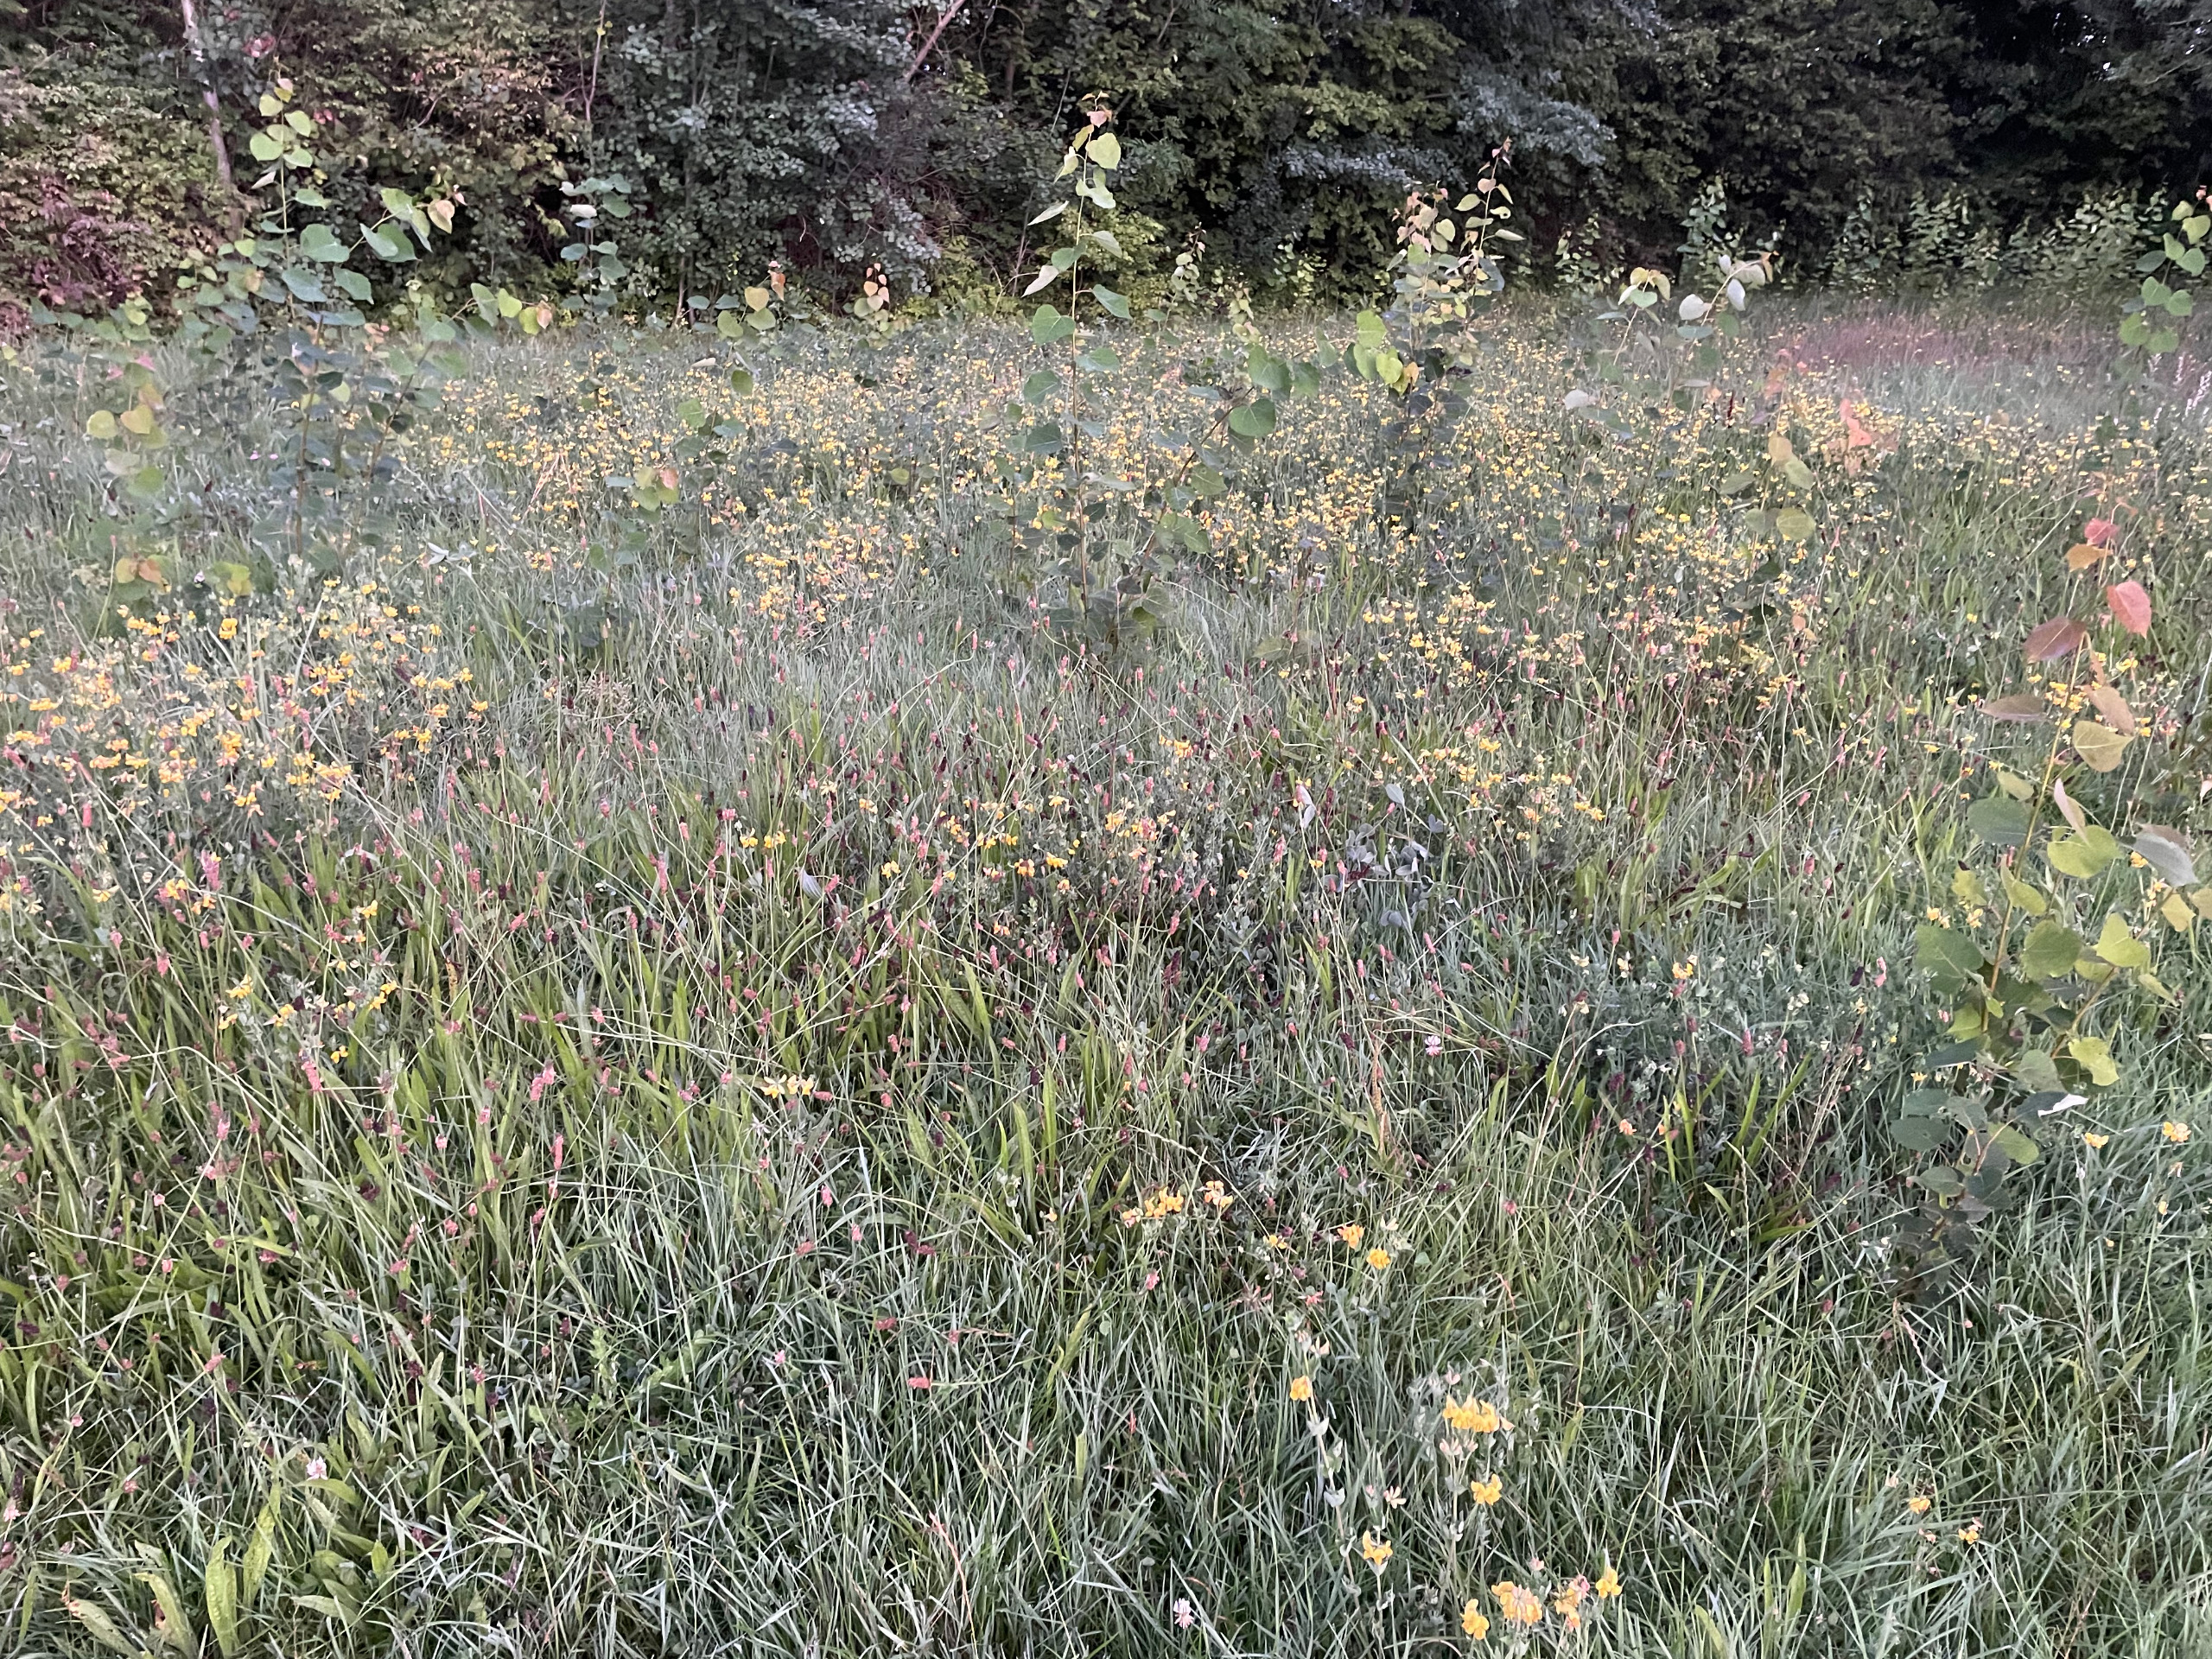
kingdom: Plantae
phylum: Tracheophyta
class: Magnoliopsida
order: Fabales
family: Fabaceae
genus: Lotus
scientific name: Lotus corniculatus
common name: Almindelig kællingetand
